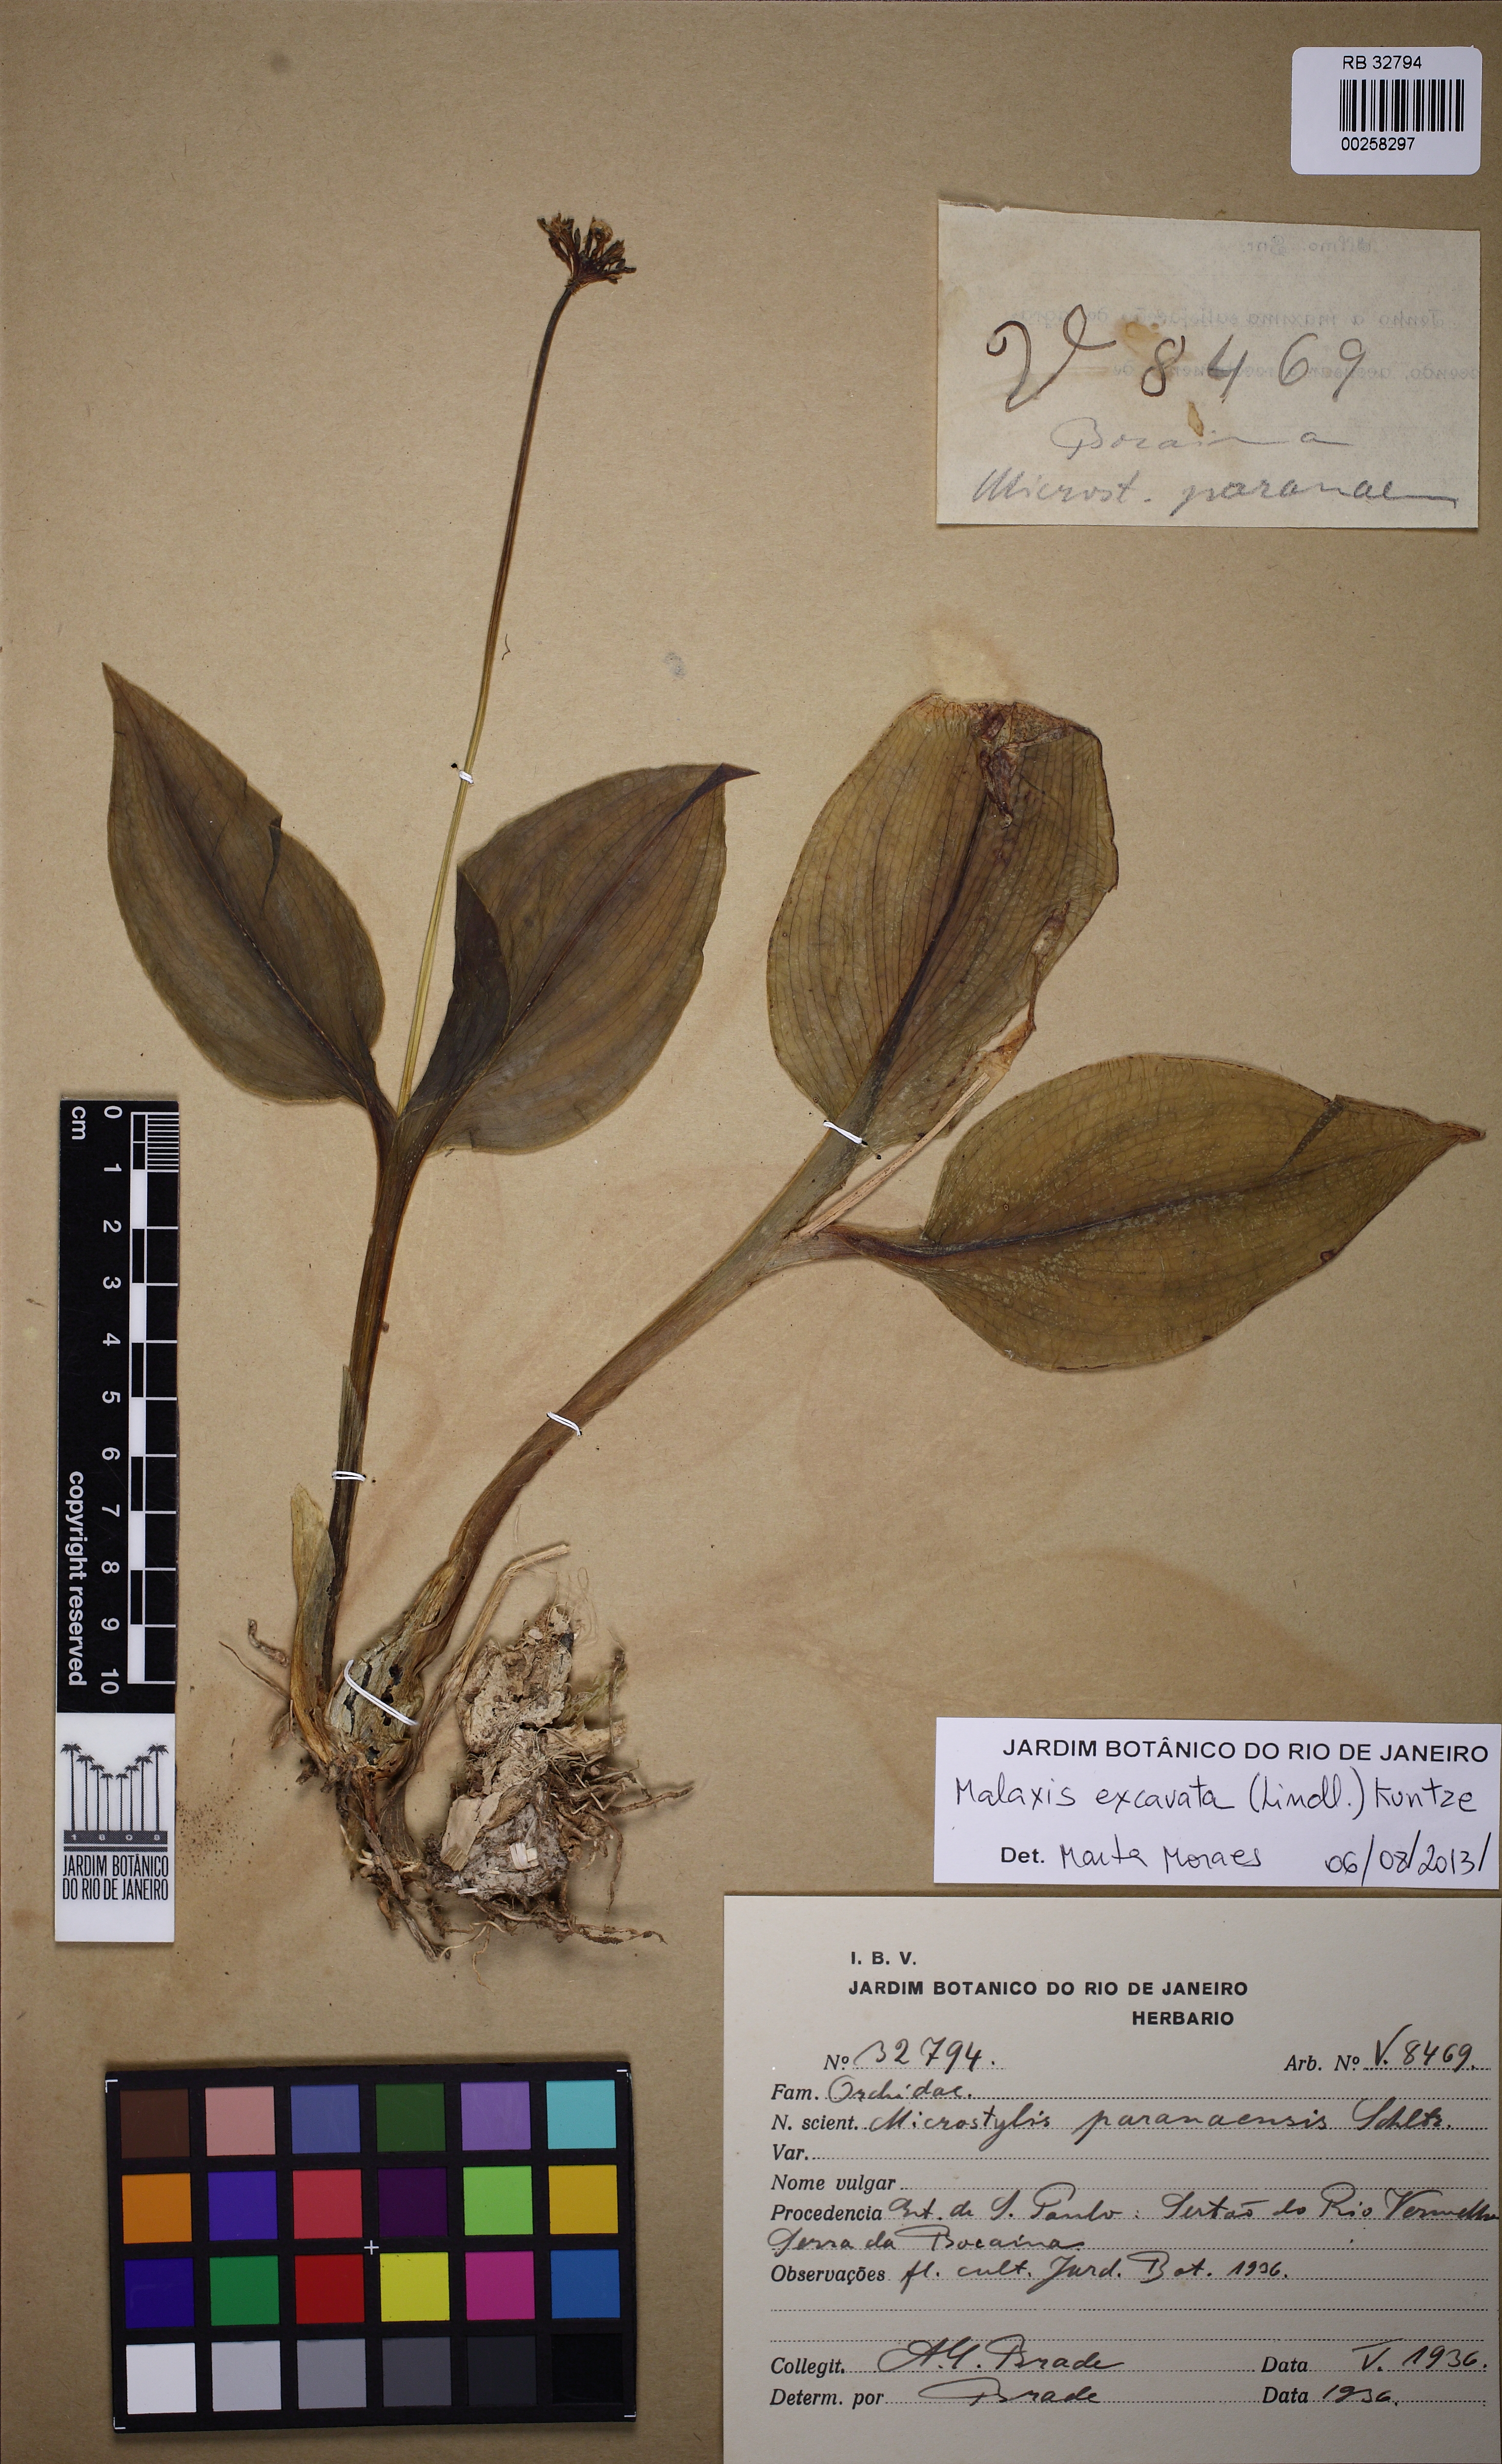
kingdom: Plantae
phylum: Tracheophyta
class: Liliopsida
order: Asparagales
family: Orchidaceae
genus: Malaxis
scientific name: Malaxis excavata
